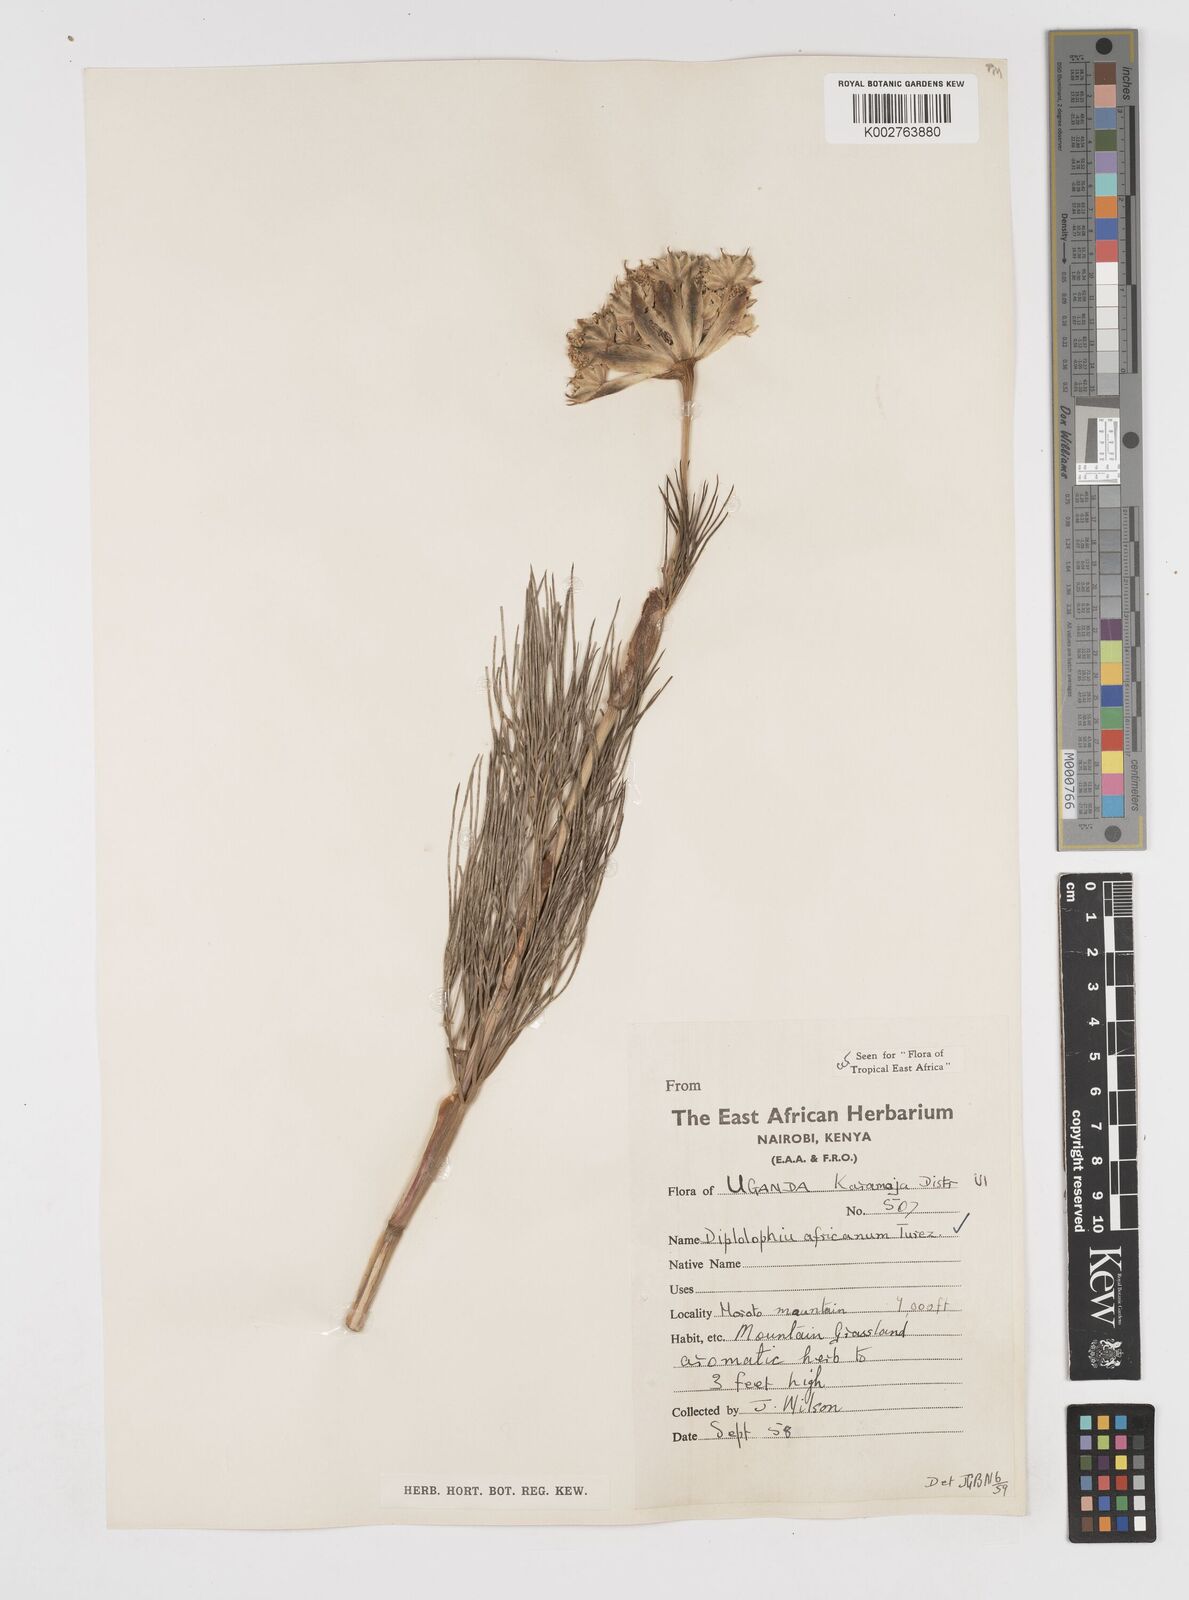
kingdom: Plantae
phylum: Tracheophyta
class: Magnoliopsida
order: Apiales
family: Apiaceae
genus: Diplolophium
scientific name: Diplolophium africanum
